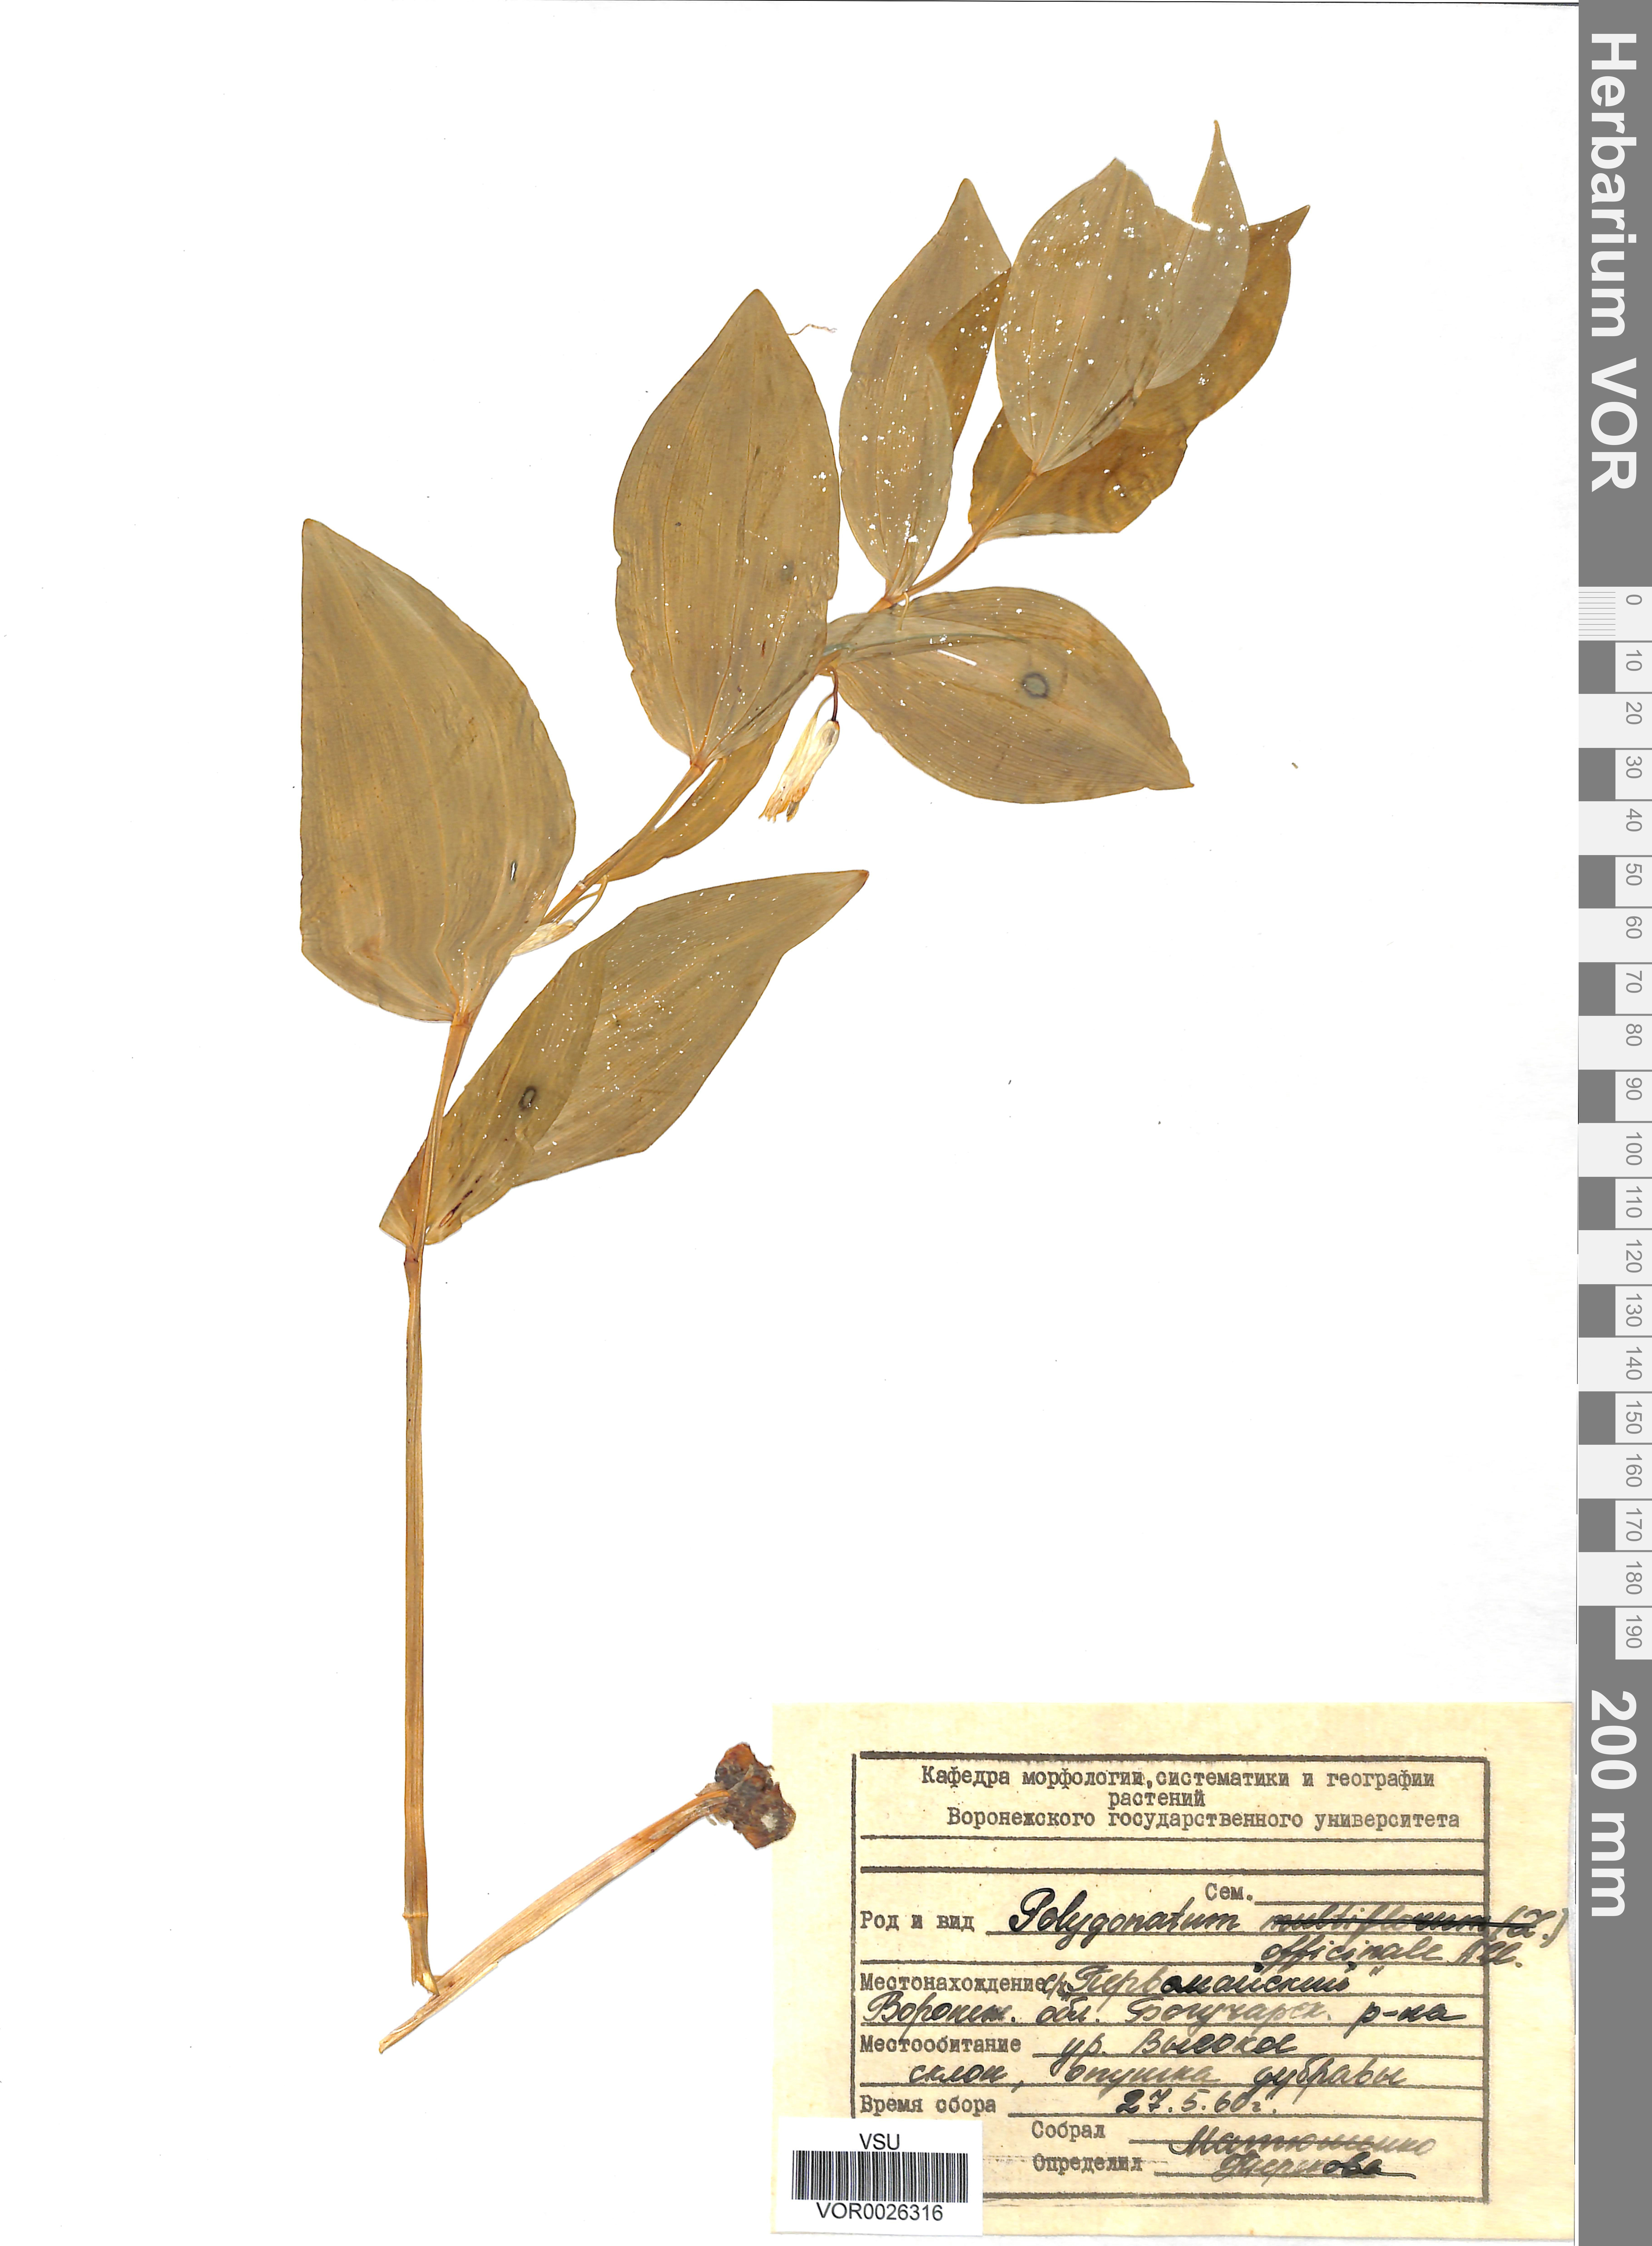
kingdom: Plantae
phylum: Tracheophyta
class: Liliopsida
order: Asparagales
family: Asparagaceae
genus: Polygonatum
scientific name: Polygonatum odoratum
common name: Angular solomon's-seal
